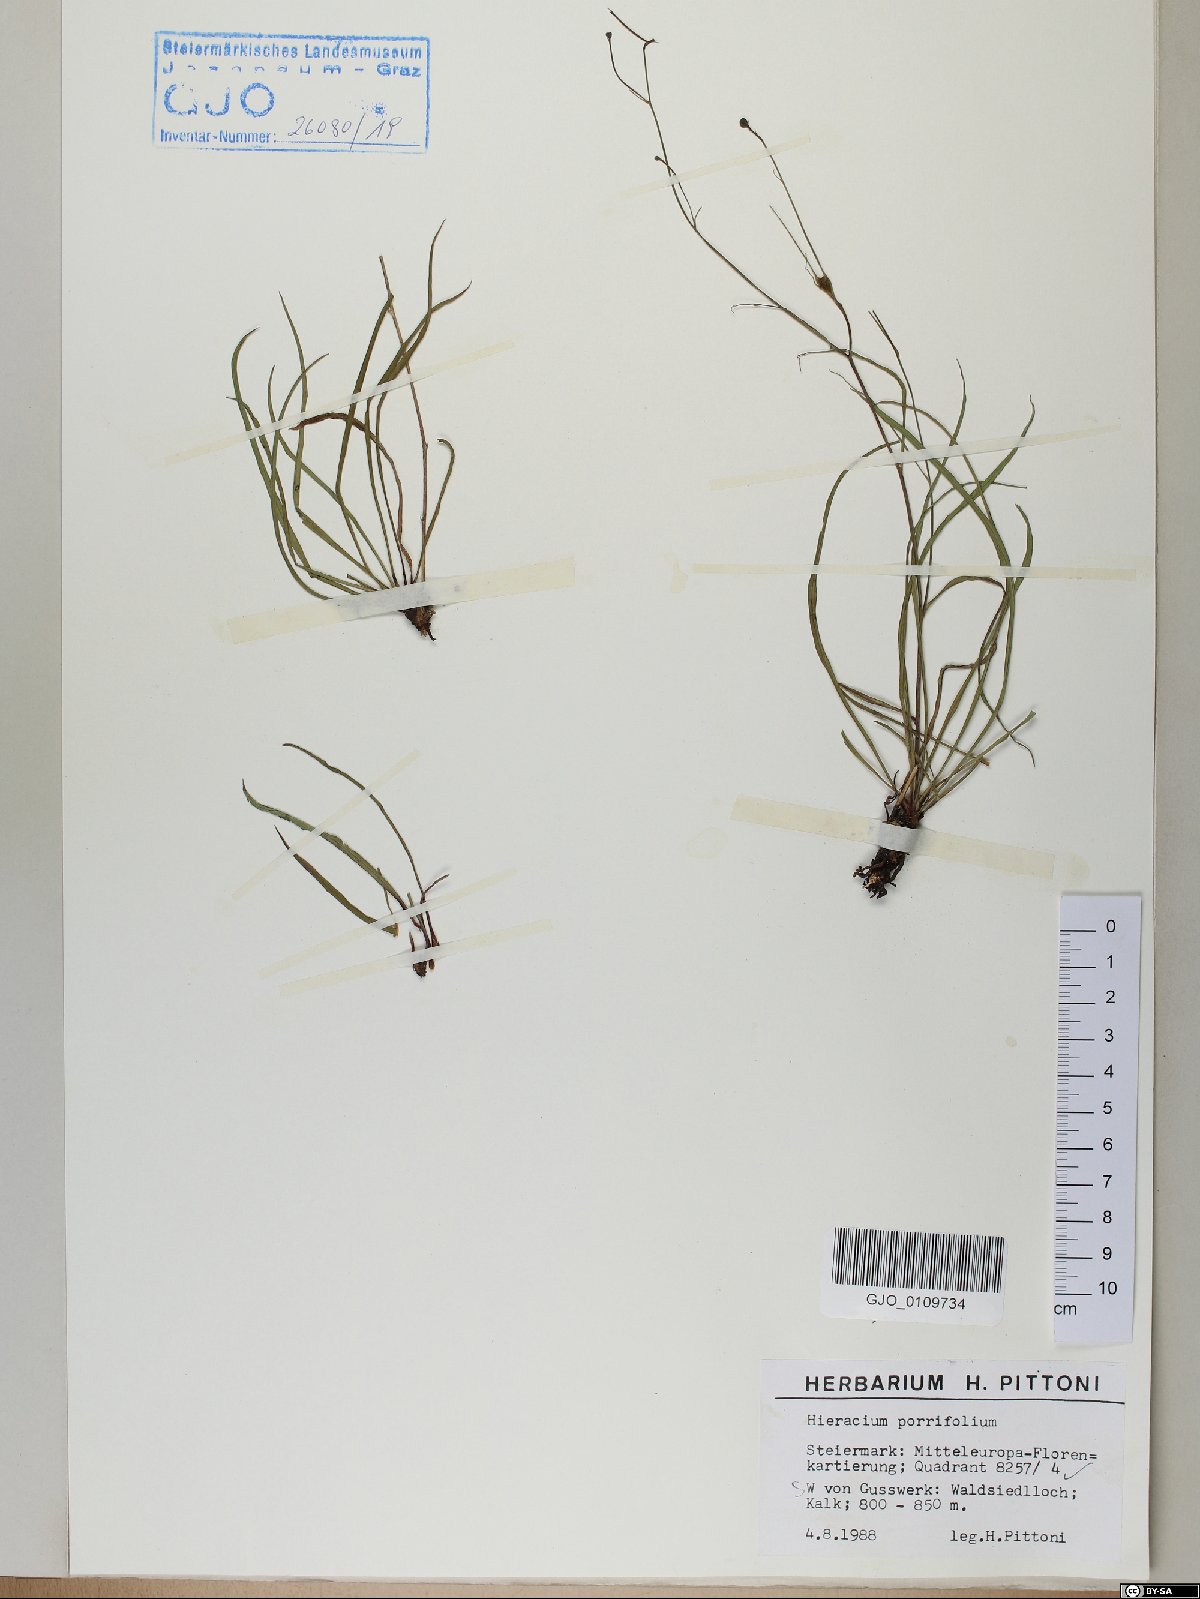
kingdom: Plantae
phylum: Tracheophyta
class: Magnoliopsida
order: Asterales
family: Asteraceae
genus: Hieracium
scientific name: Hieracium porrifolium
